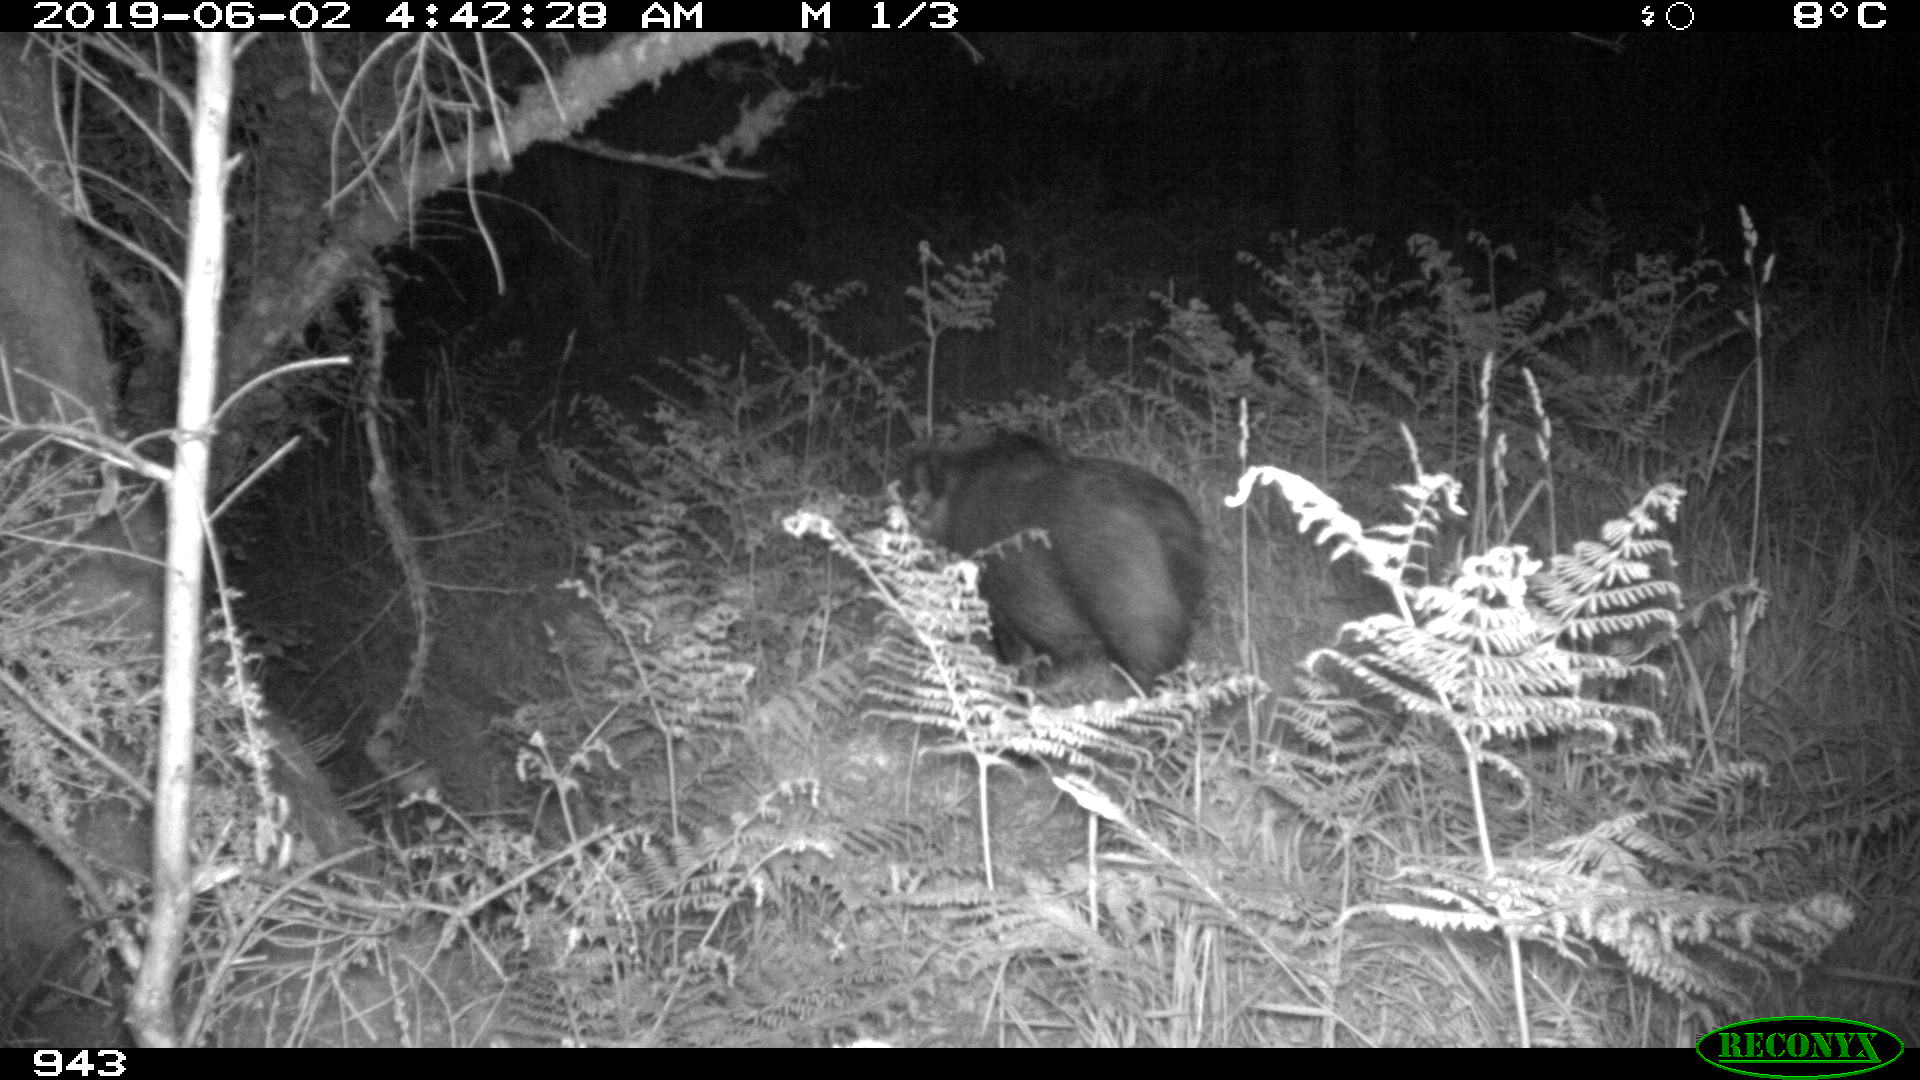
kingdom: Animalia
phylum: Chordata
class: Mammalia
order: Artiodactyla
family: Suidae
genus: Sus
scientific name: Sus scrofa
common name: Wild boar
